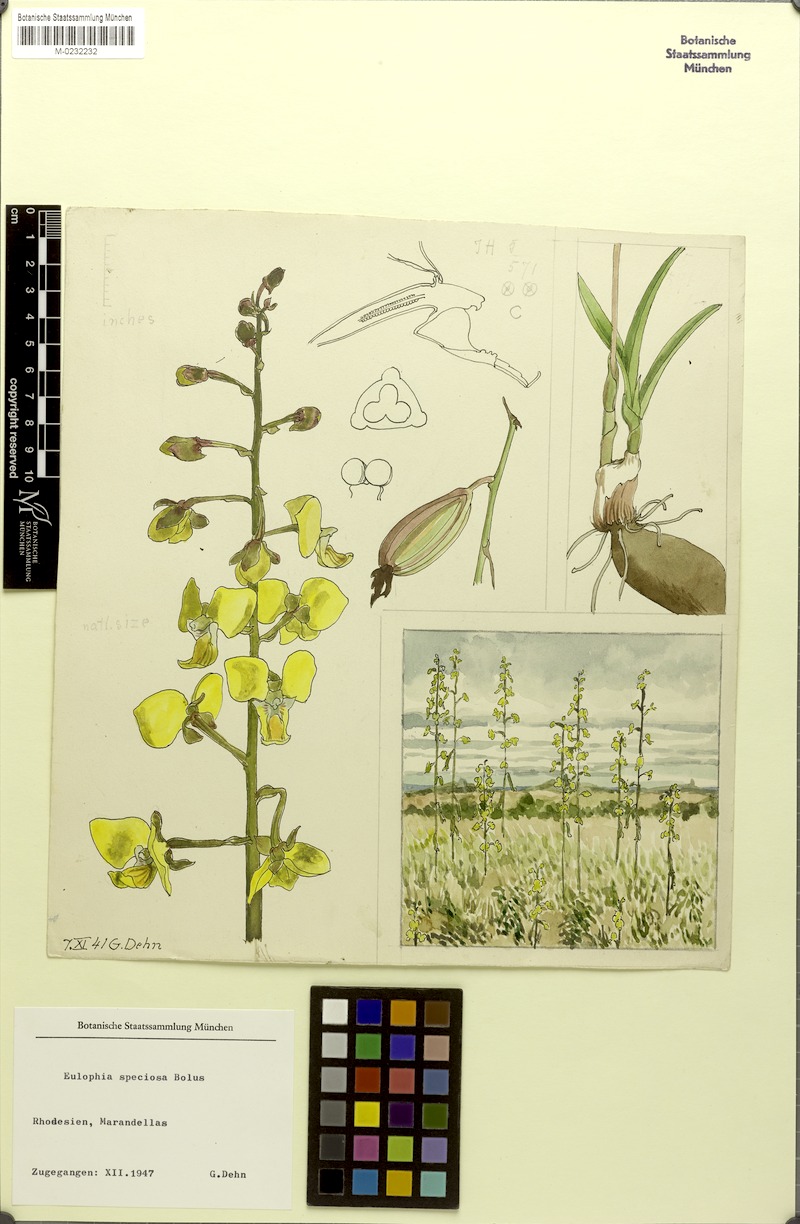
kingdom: Plantae
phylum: Tracheophyta
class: Liliopsida
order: Asparagales
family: Orchidaceae
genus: Eulophia
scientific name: Eulophia speciosa
